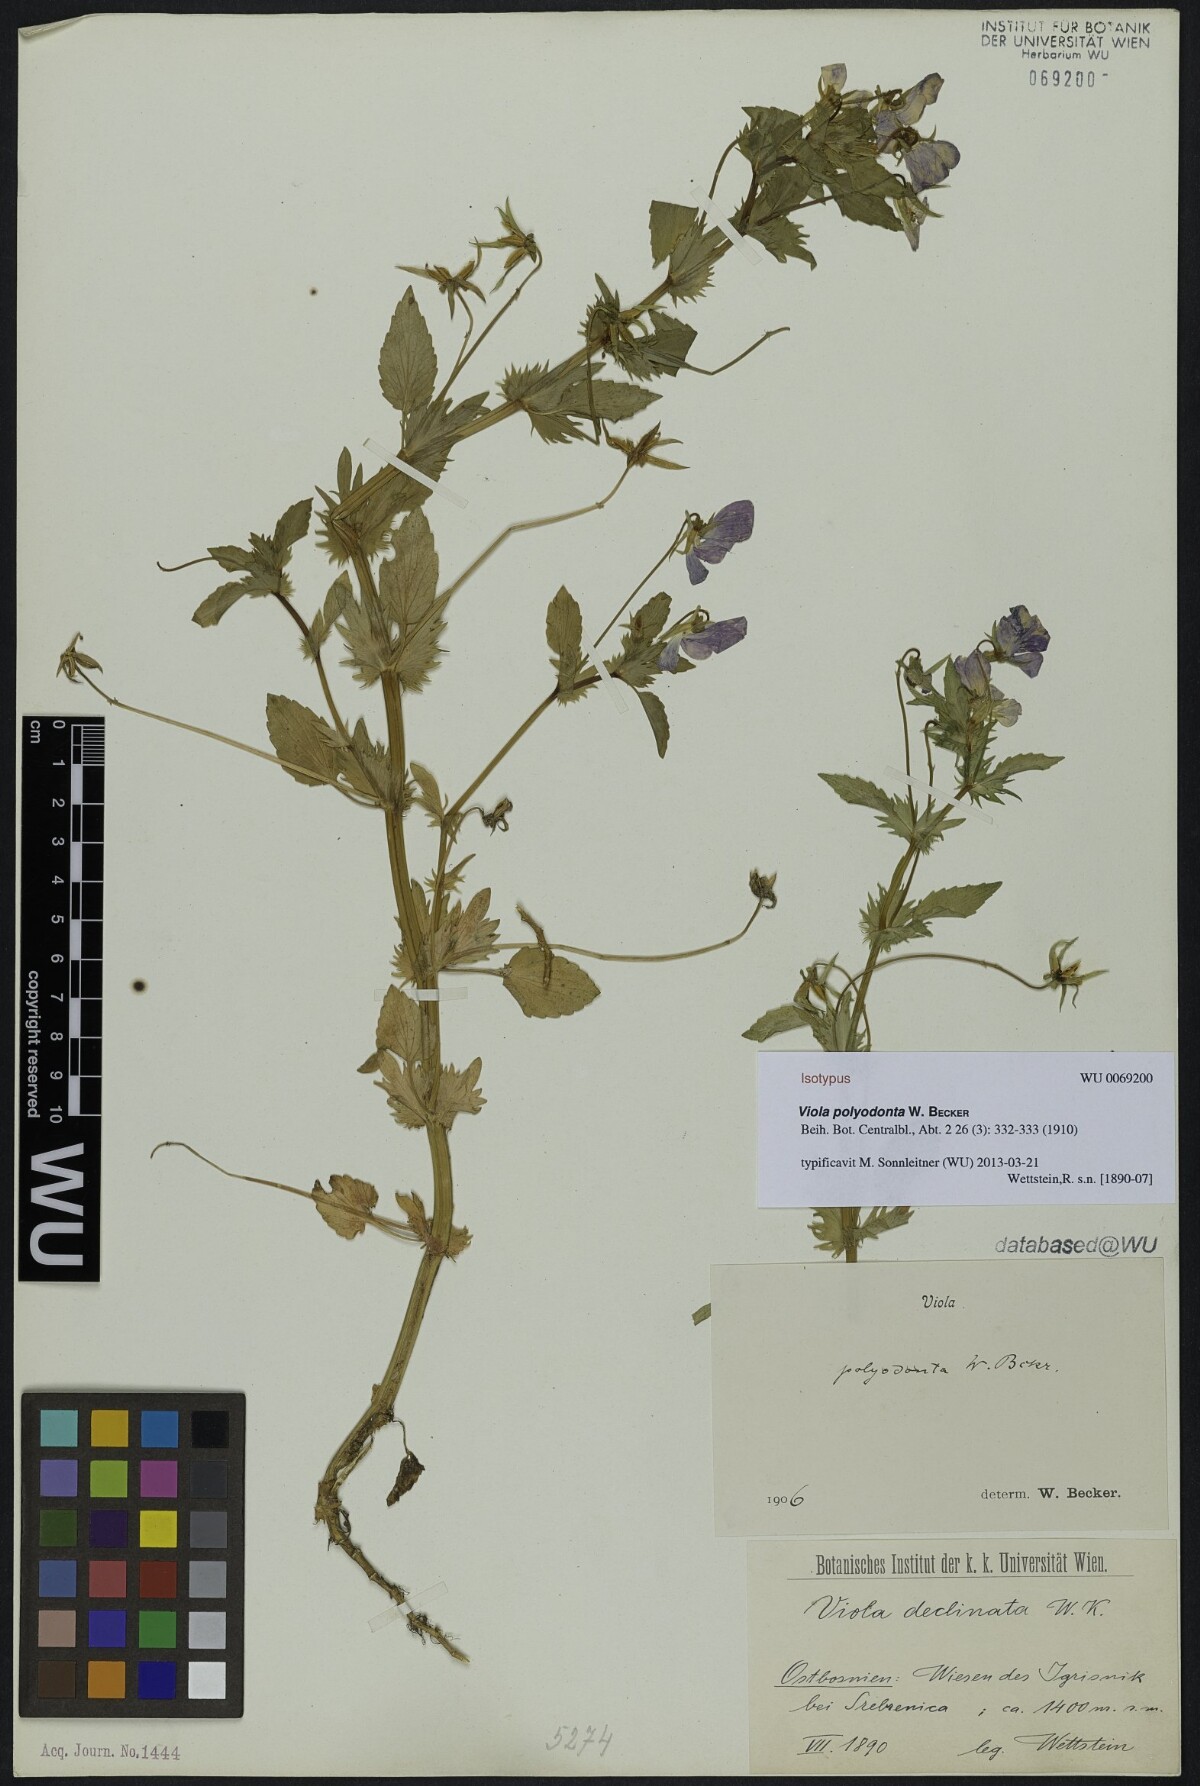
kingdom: Plantae
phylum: Tracheophyta
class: Magnoliopsida
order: Malpighiales
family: Violaceae
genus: Viola
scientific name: Viola dacica
